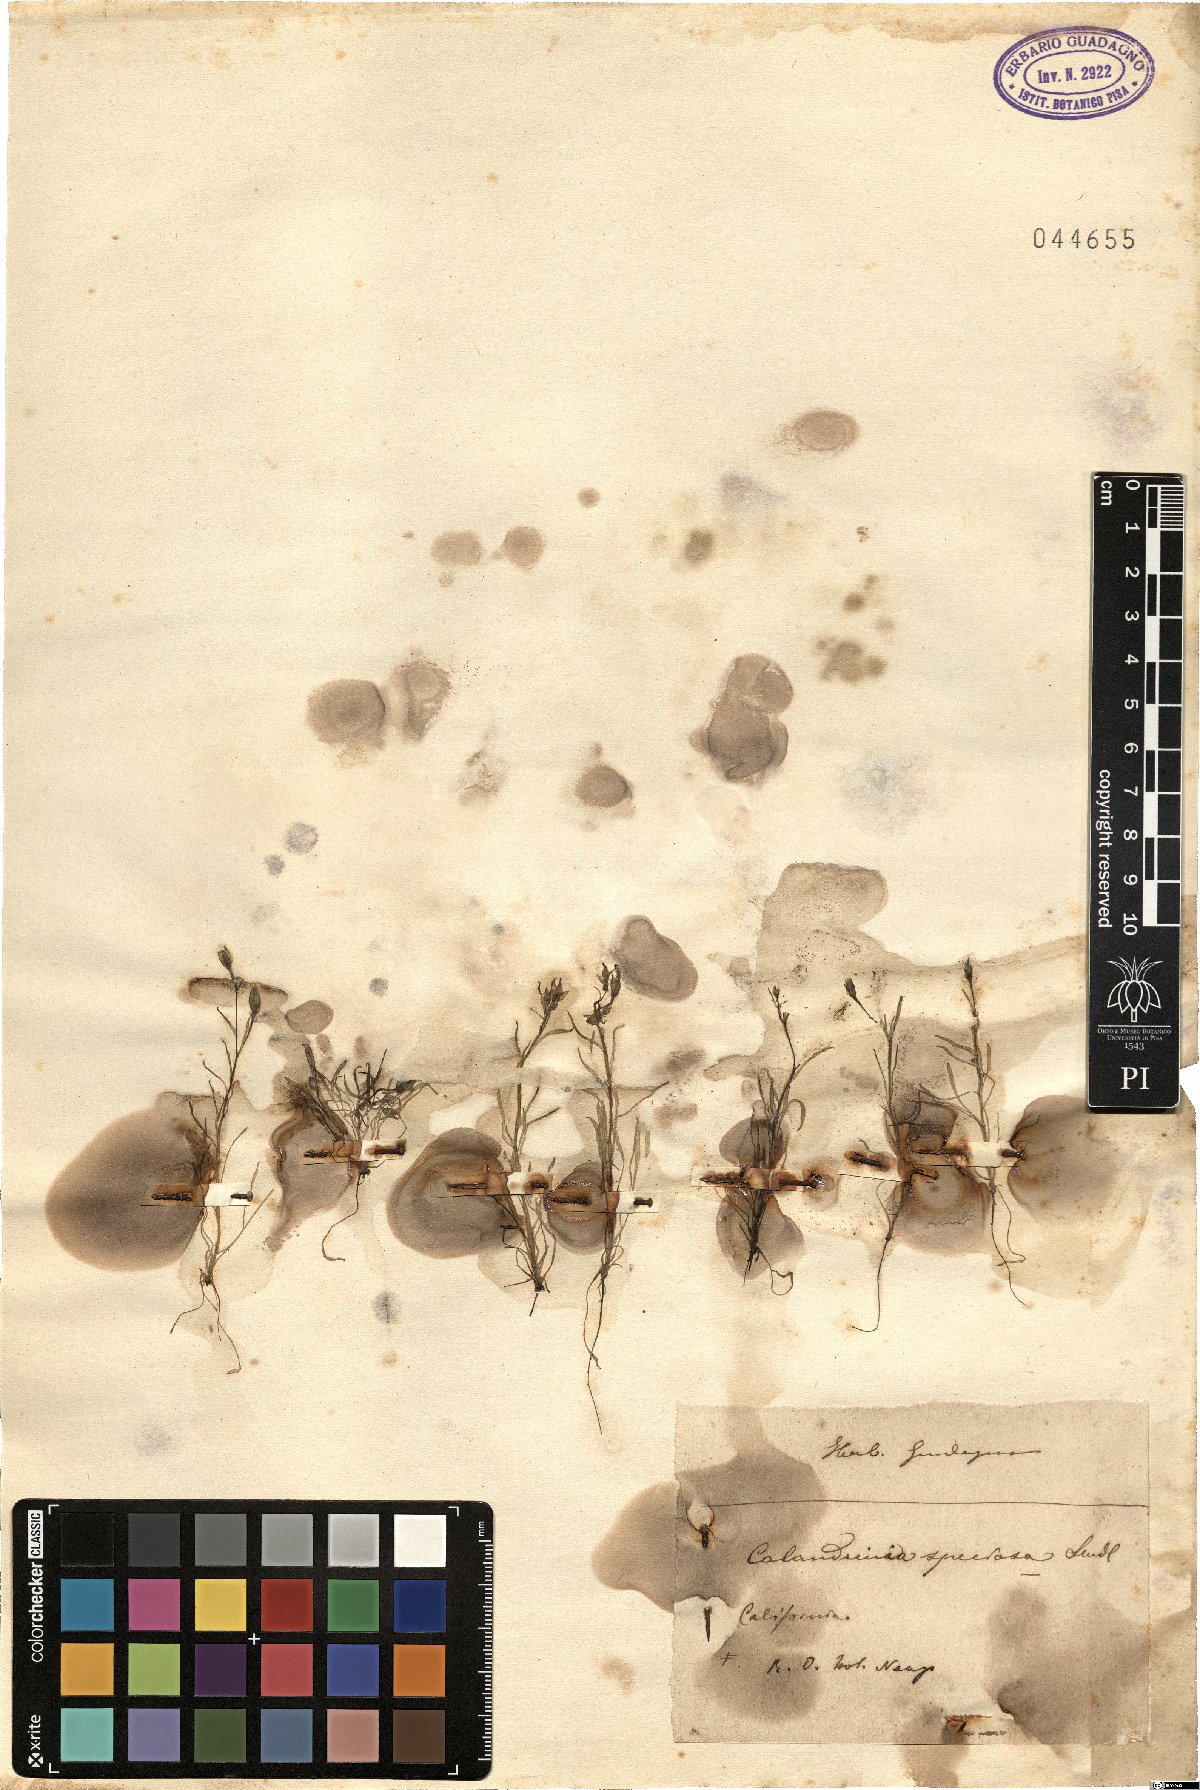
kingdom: Plantae
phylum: Tracheophyta
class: Magnoliopsida
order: Caryophyllales
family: Montiaceae
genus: Calandrinia
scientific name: Calandrinia ciliata
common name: Red-maids
